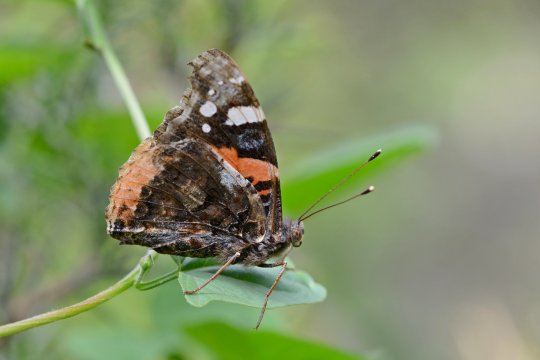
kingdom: Animalia
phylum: Arthropoda
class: Insecta
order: Lepidoptera
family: Nymphalidae
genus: Vanessa
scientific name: Vanessa atalanta
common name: Red Admiral
